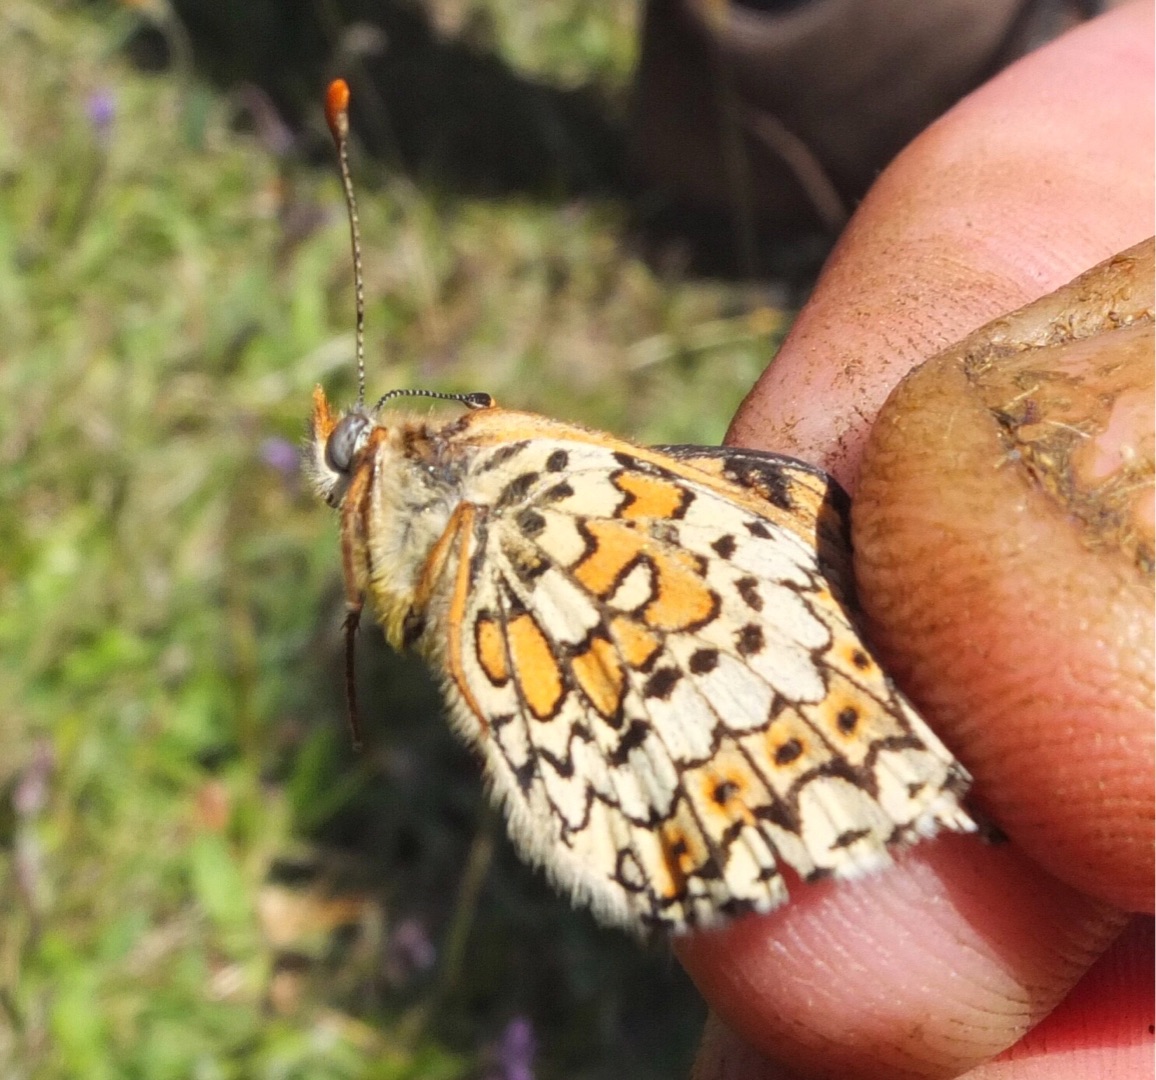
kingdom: Animalia
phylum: Arthropoda
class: Insecta
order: Lepidoptera
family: Nymphalidae
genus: Melitaea
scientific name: Melitaea cinxia
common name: Okkergul pletvinge
